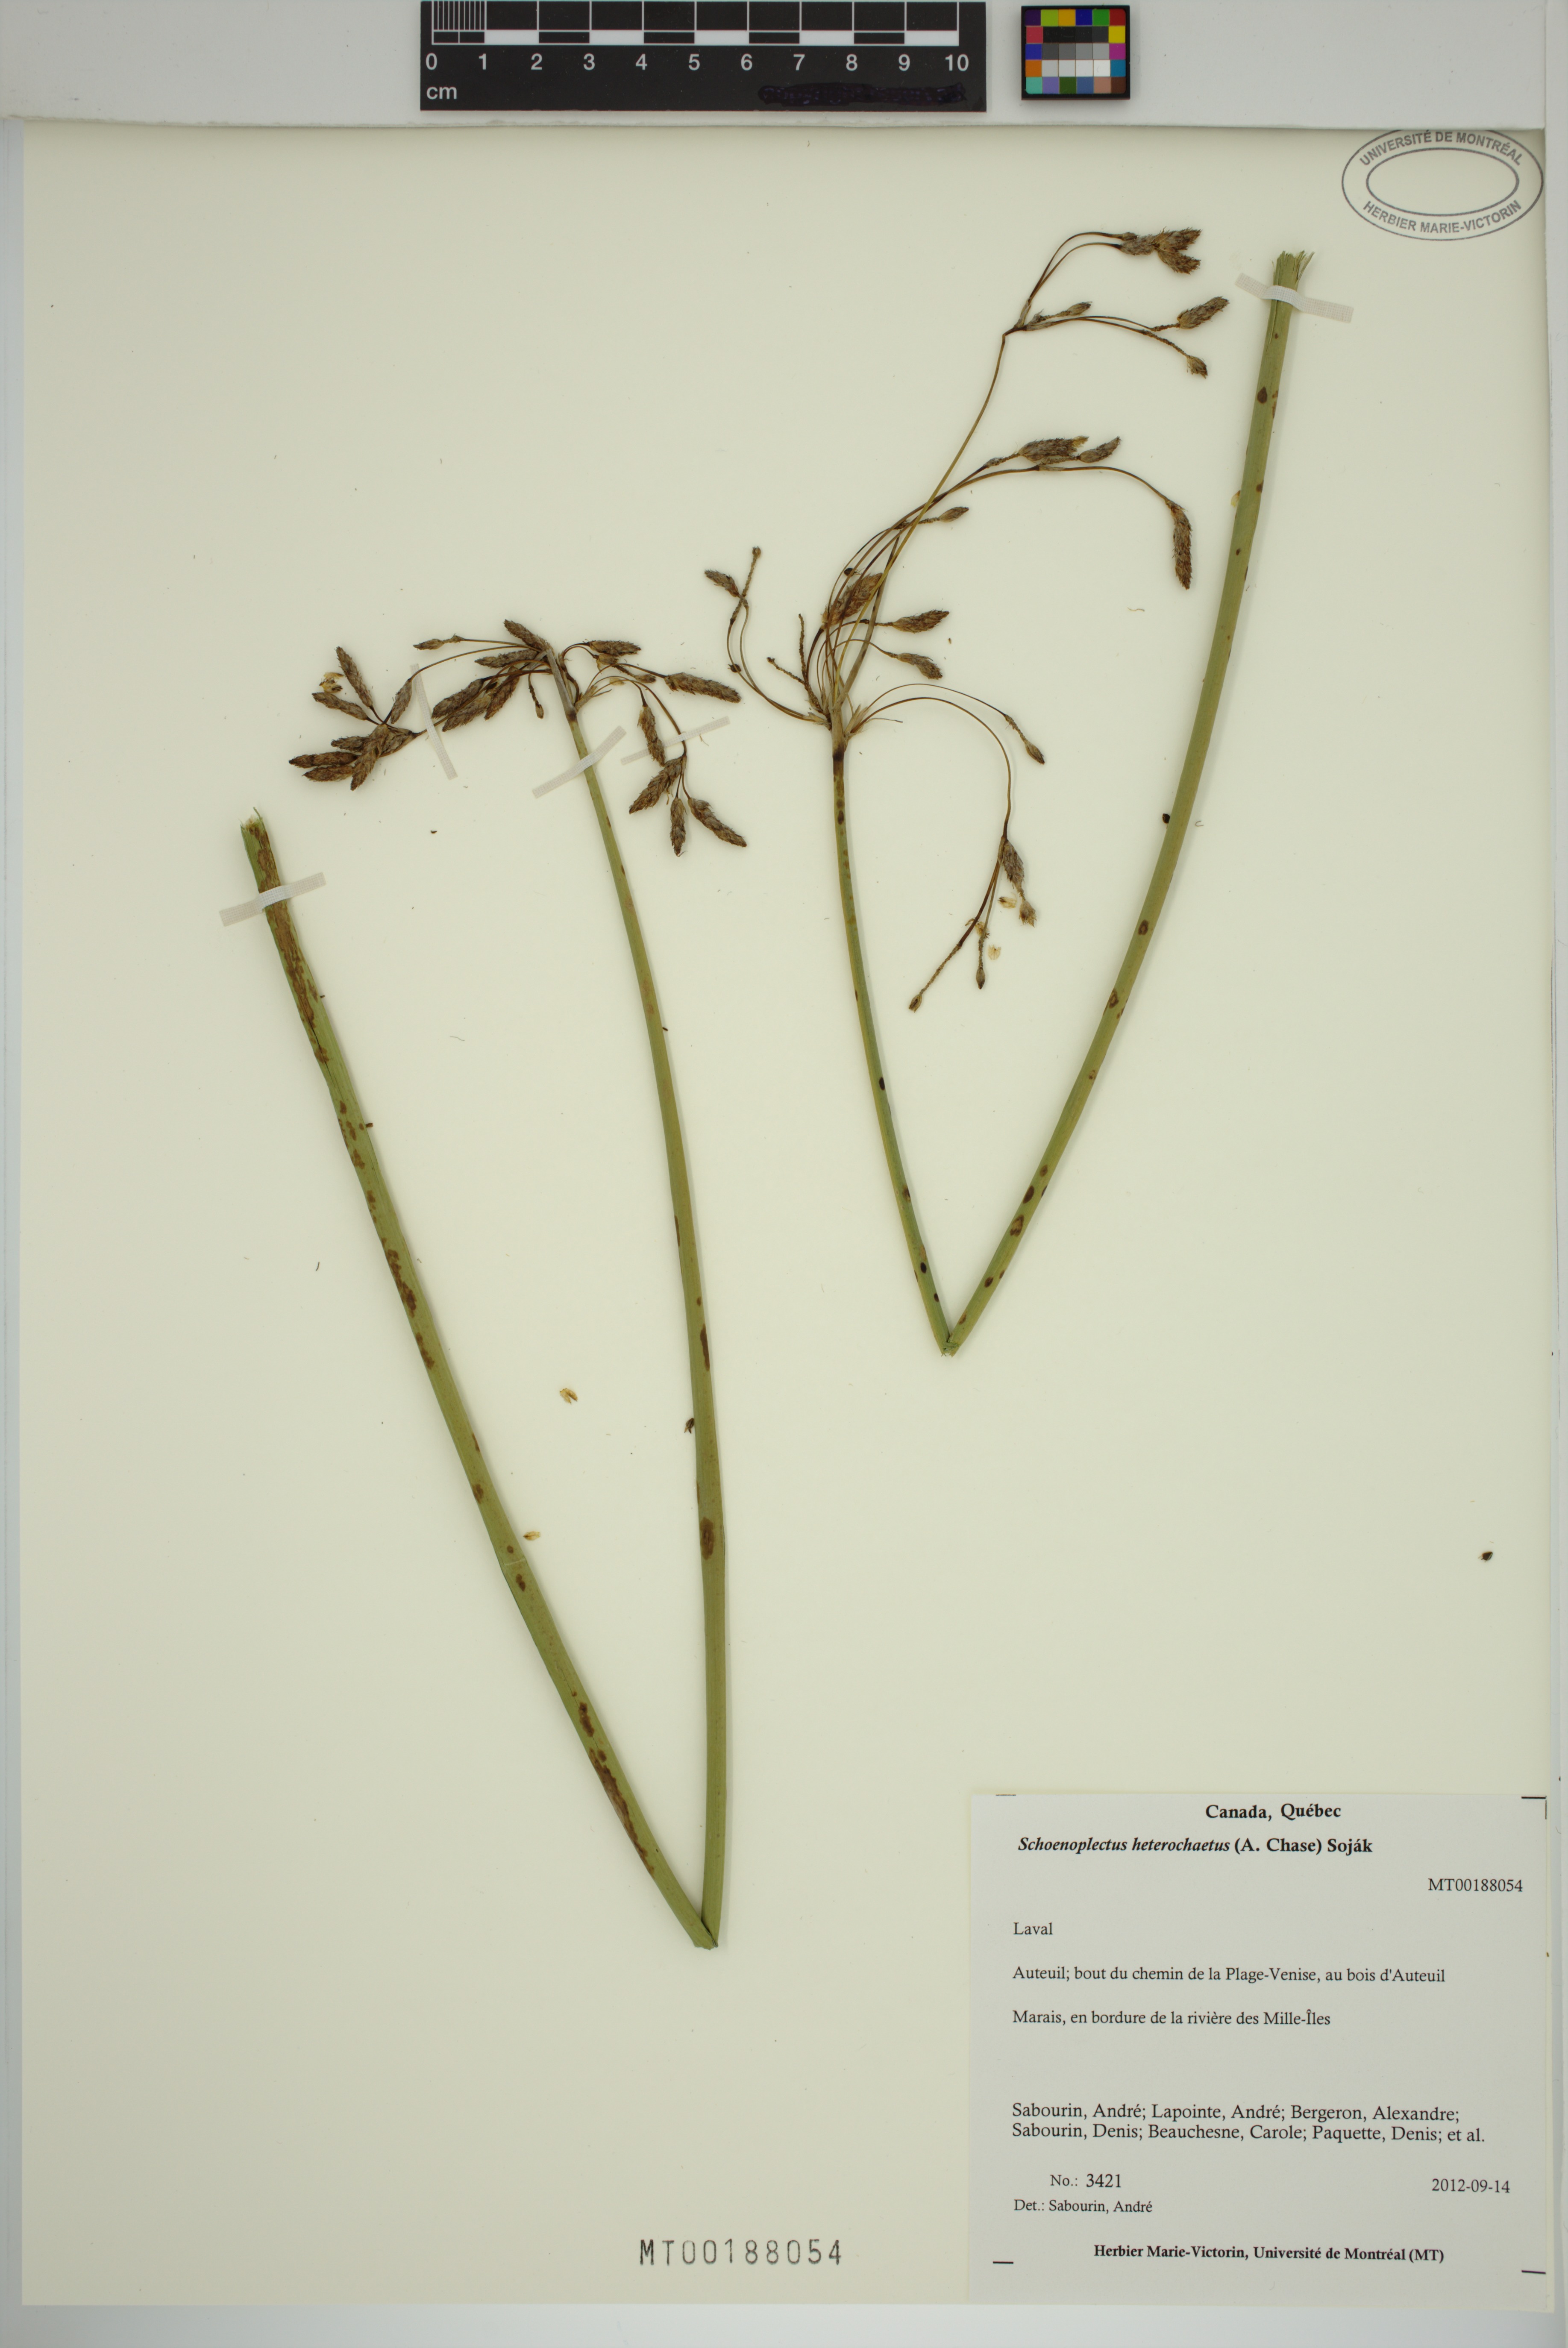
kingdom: Plantae
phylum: Tracheophyta
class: Liliopsida
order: Poales
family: Cyperaceae
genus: Schoenoplectus
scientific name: Schoenoplectus heterochaetus
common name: Pale great bulrush
